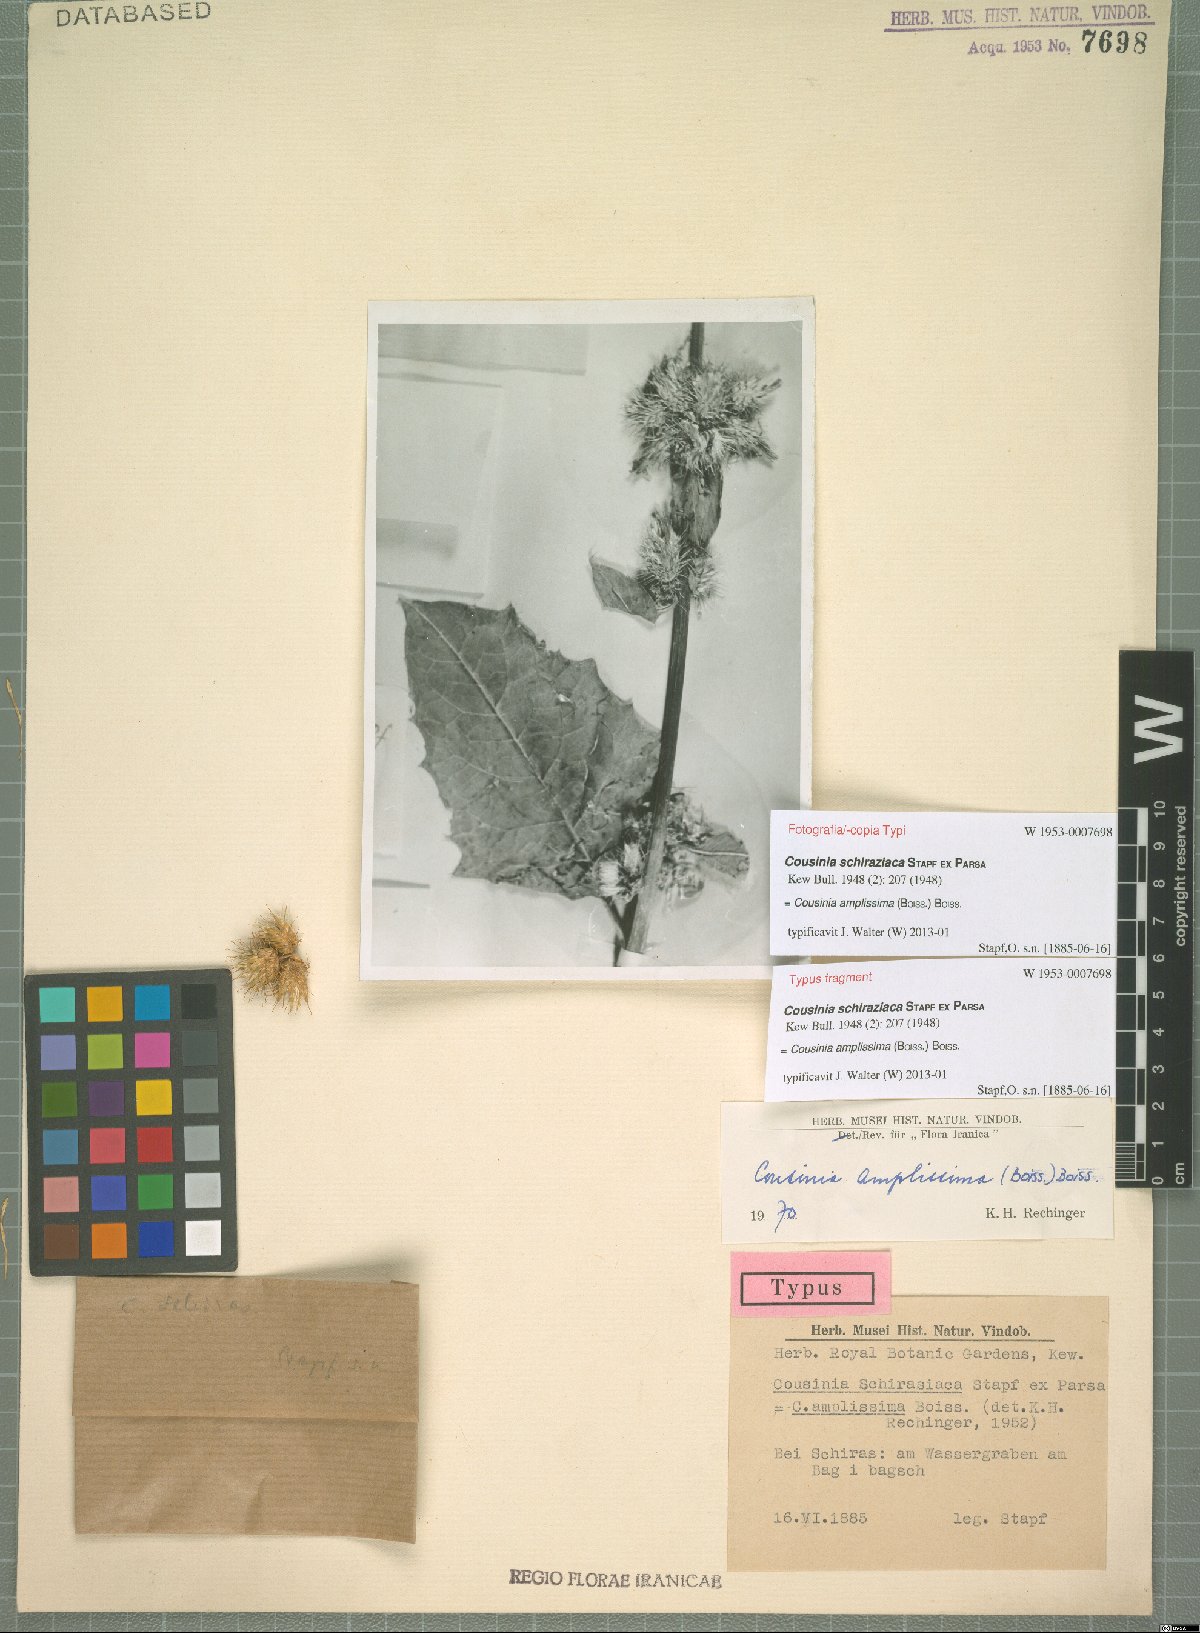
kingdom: Plantae
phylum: Tracheophyta
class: Magnoliopsida
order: Asterales
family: Asteraceae
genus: Arctium
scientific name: Arctium amplissimum
